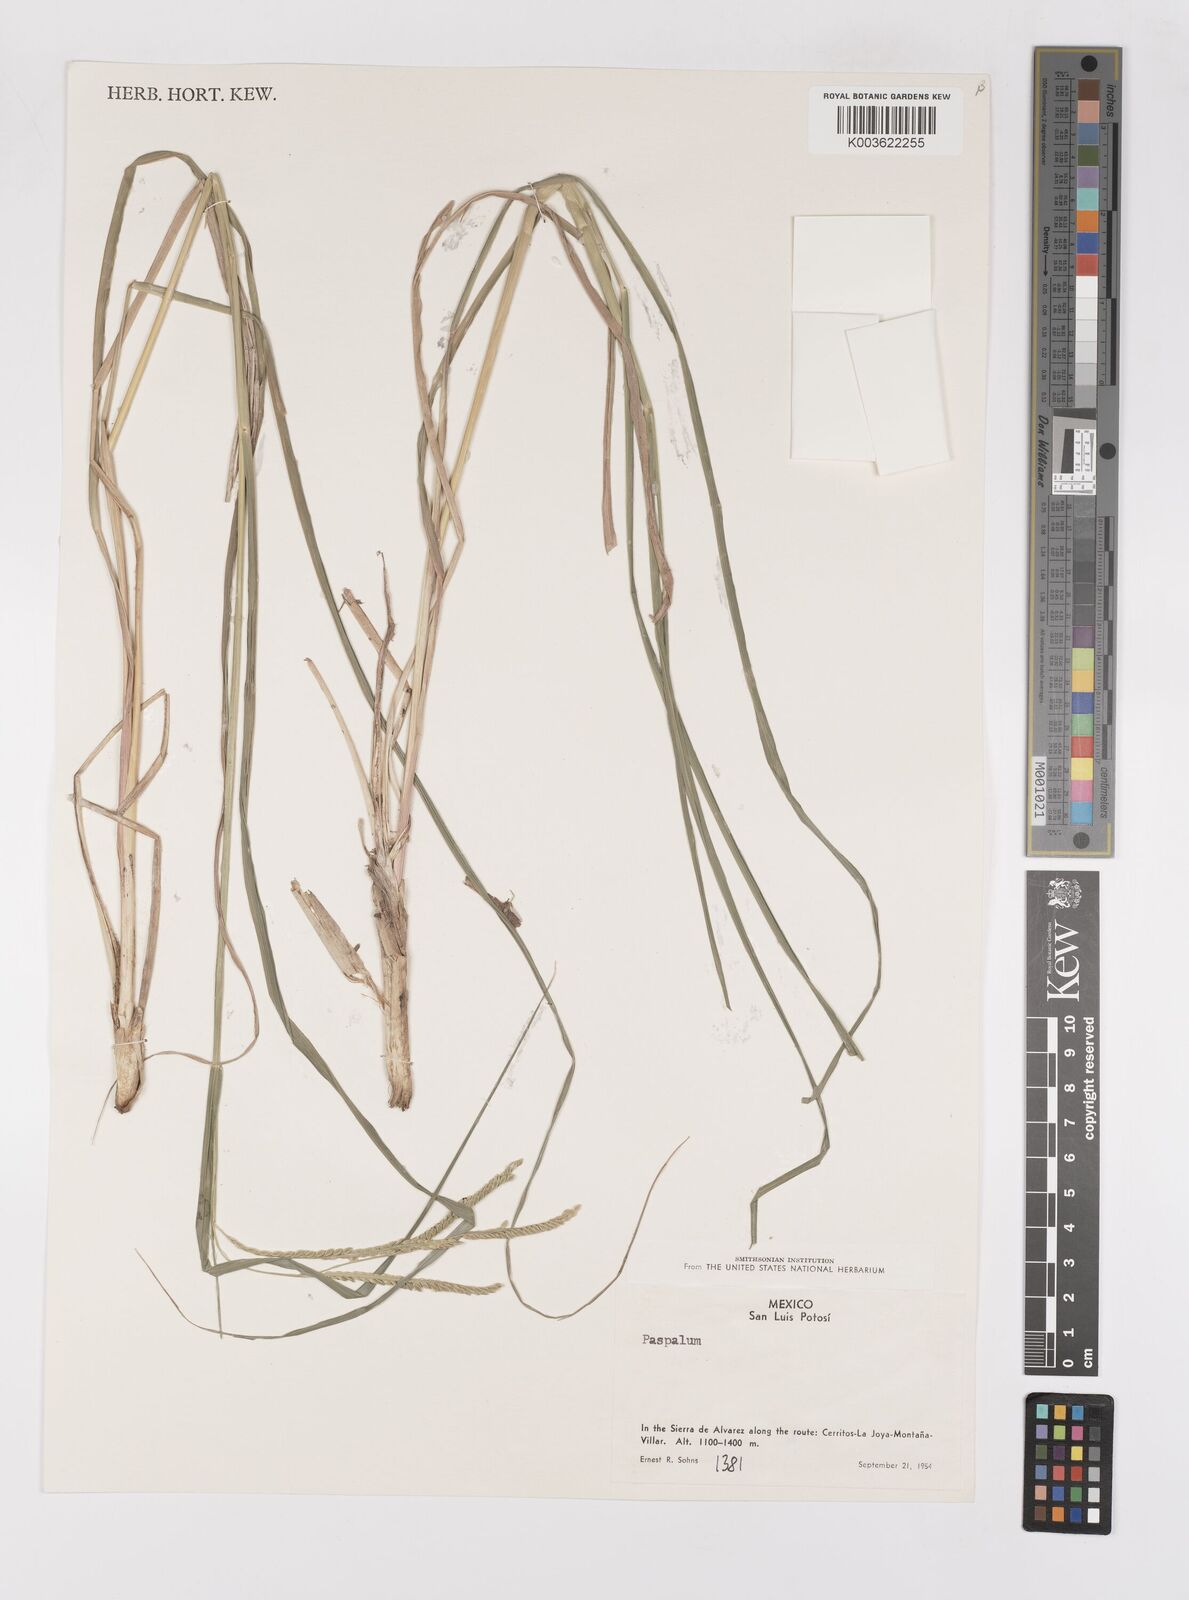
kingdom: Plantae
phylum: Tracheophyta
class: Liliopsida
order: Poales
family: Poaceae
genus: Paspalum
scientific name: Paspalum
